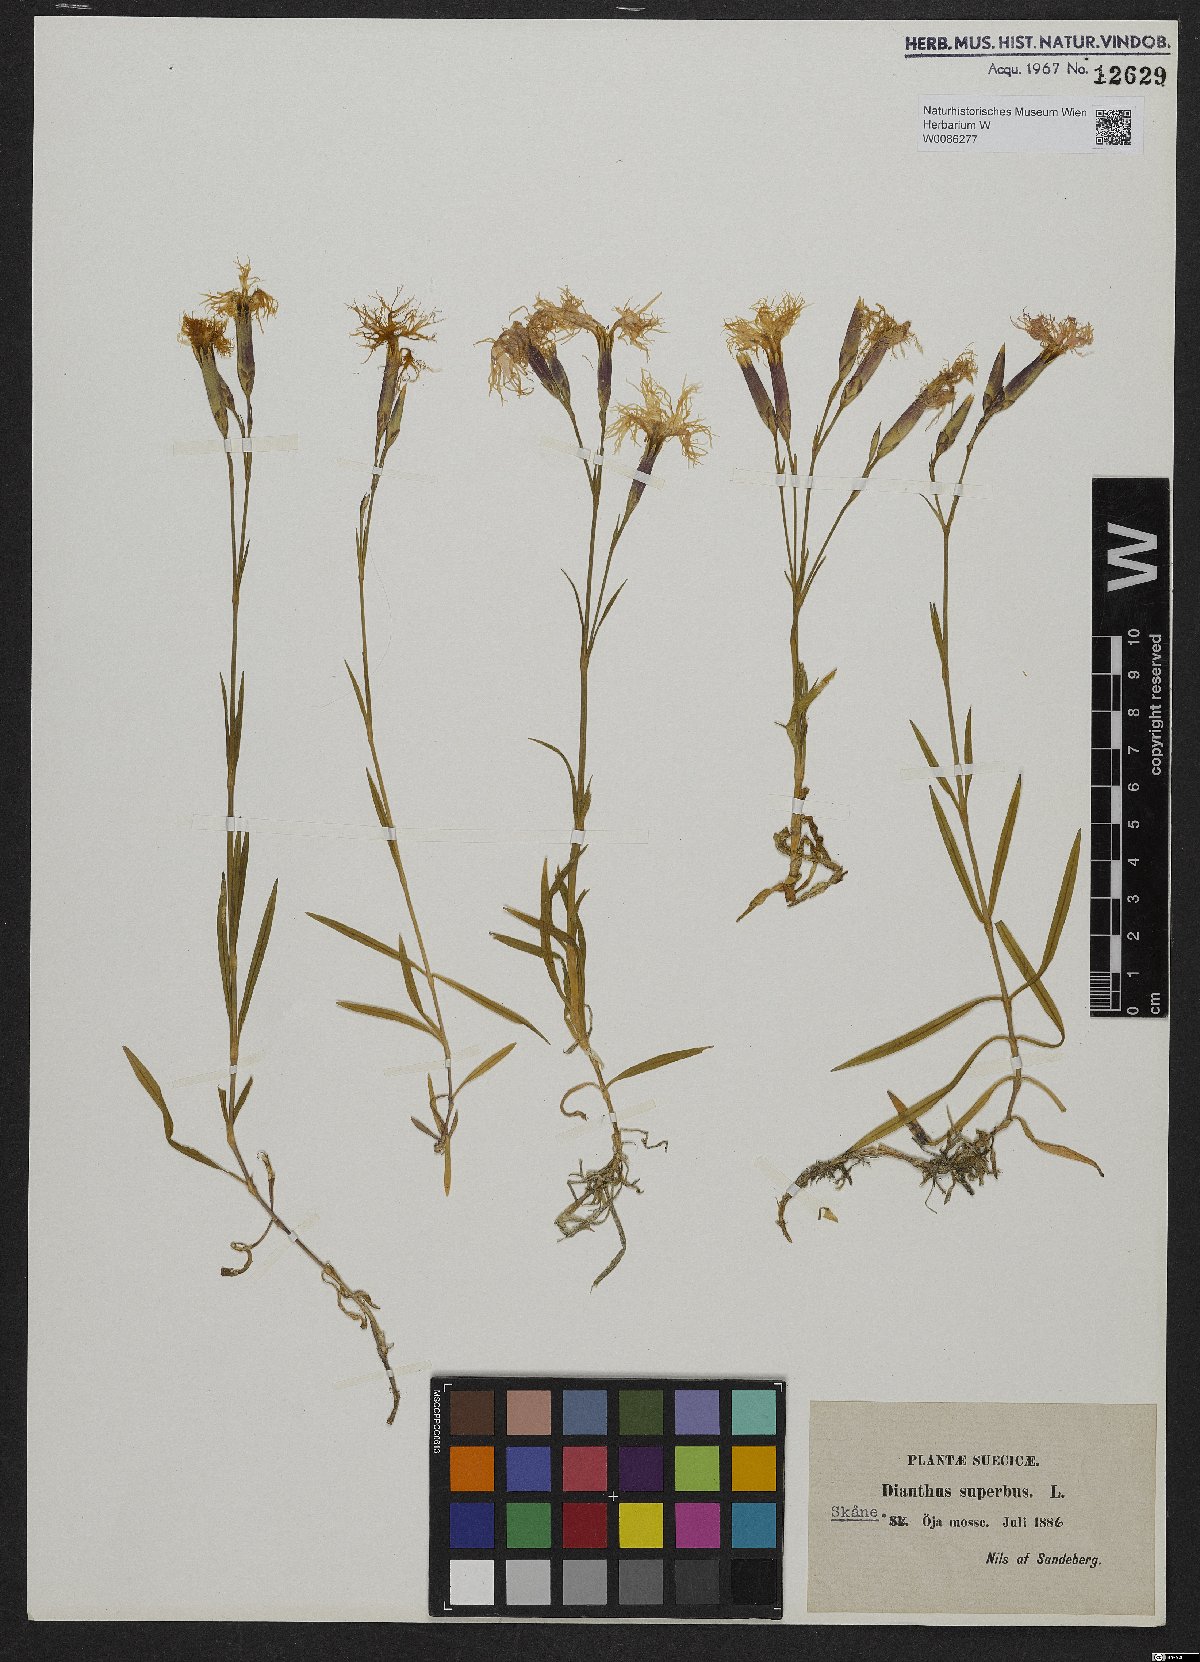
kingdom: Plantae
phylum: Tracheophyta
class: Magnoliopsida
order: Caryophyllales
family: Caryophyllaceae
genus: Dianthus
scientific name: Dianthus superbus
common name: Fringed pink
